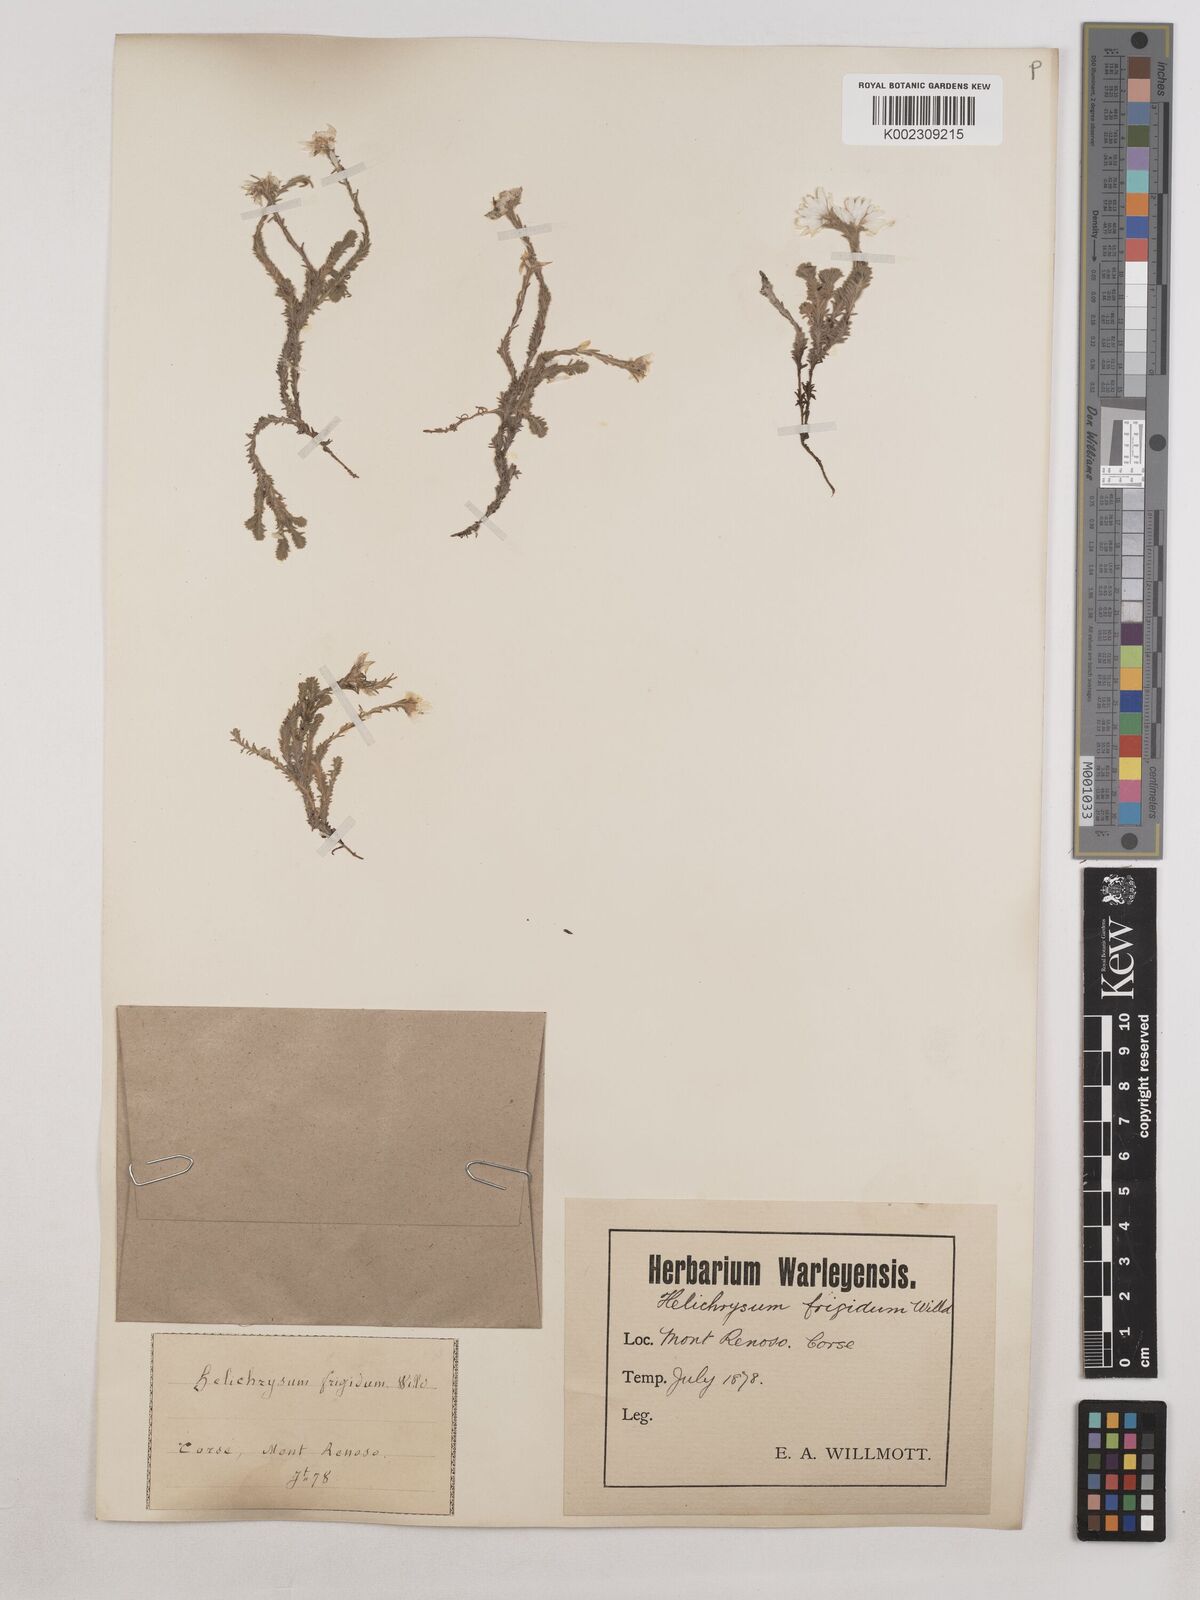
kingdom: Plantae
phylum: Tracheophyta
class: Magnoliopsida
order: Asterales
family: Asteraceae
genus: Castroviejoa
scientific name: Castroviejoa frigida
